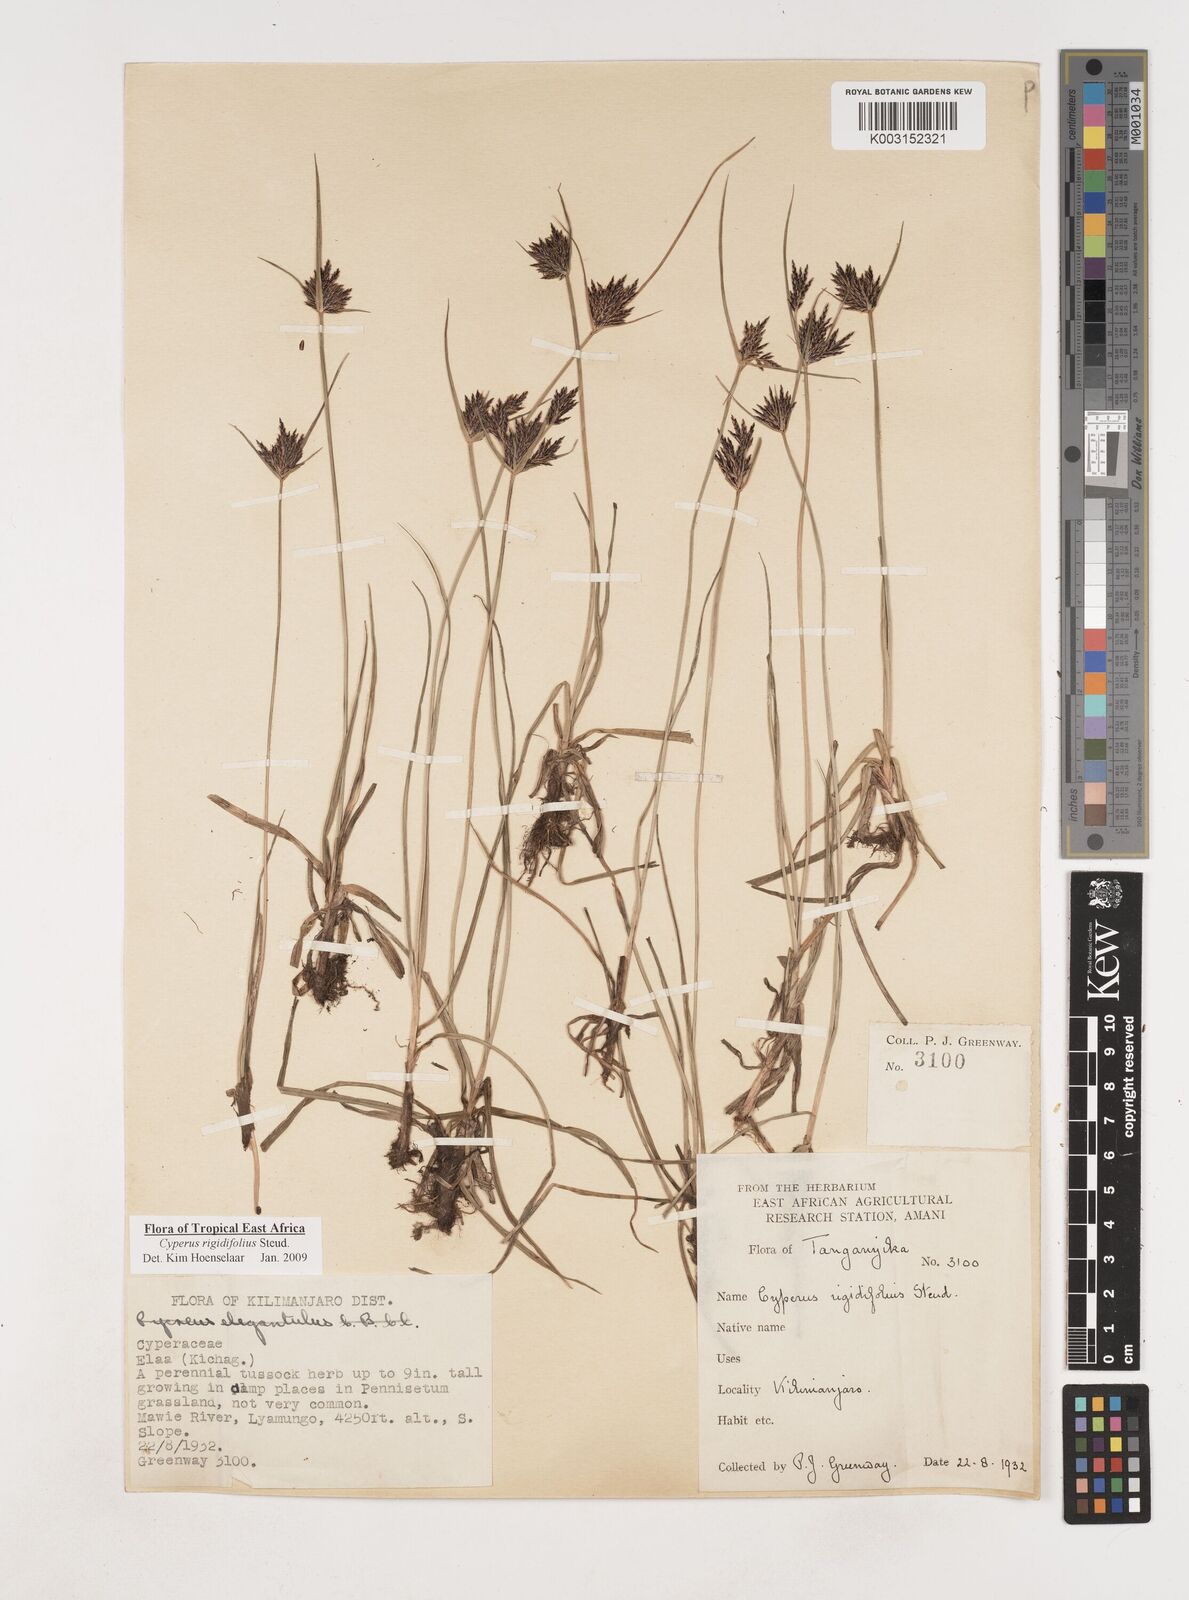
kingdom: Plantae
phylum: Tracheophyta
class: Liliopsida
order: Poales
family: Cyperaceae
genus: Cyperus
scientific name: Cyperus rigidifolius
